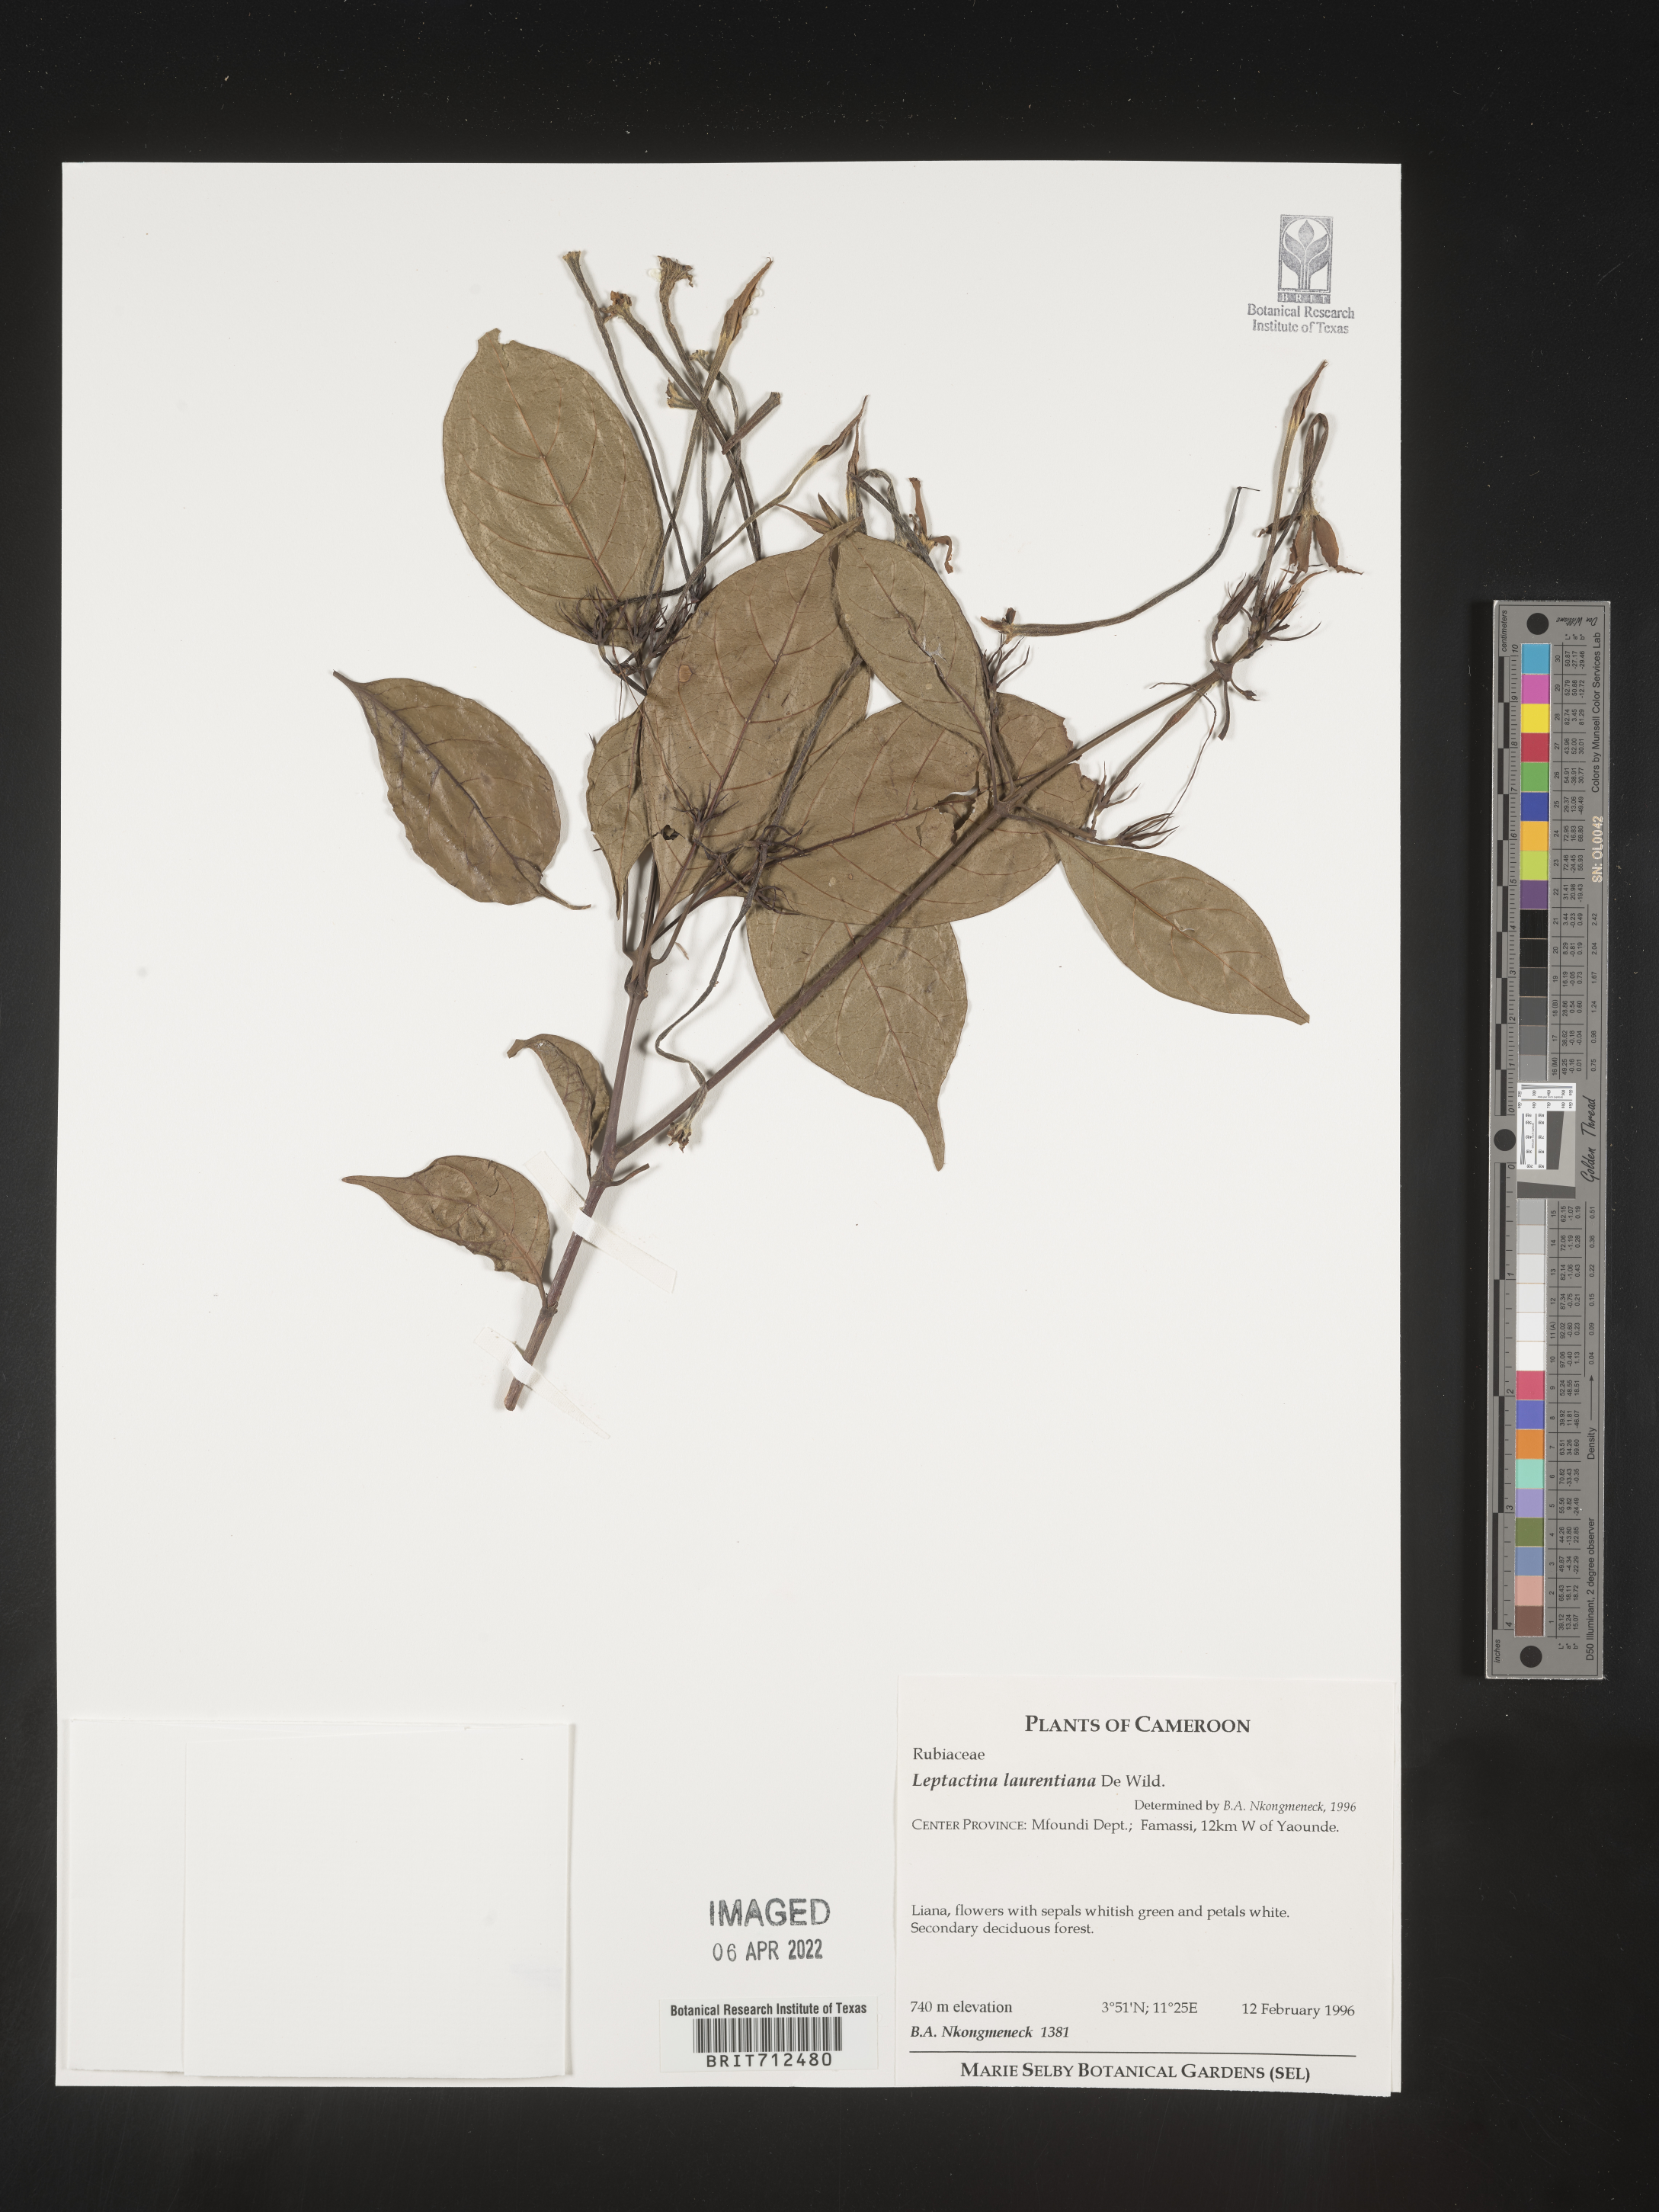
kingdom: Plantae
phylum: Tracheophyta
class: Magnoliopsida
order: Gentianales
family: Rubiaceae
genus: Leptactinia
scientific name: Leptactinia
